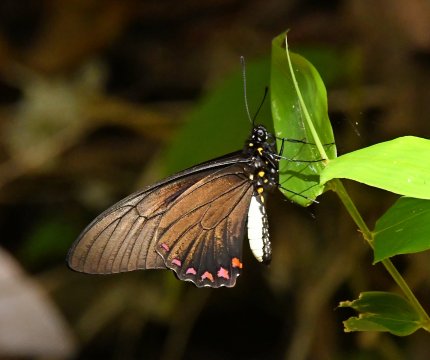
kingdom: Animalia
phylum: Arthropoda
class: Insecta
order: Lepidoptera
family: Papilionidae
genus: Battus
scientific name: Battus lycidas
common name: Cramer's Swallowtail
